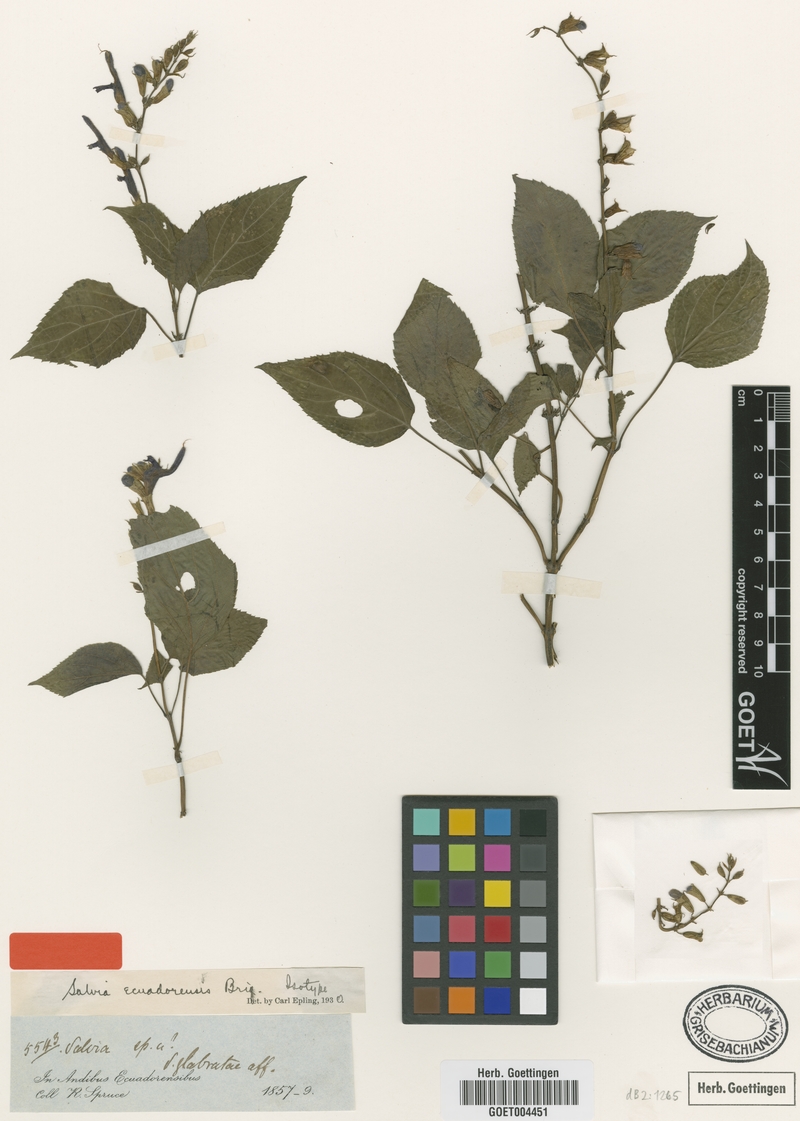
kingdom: Plantae
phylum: Tracheophyta
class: Magnoliopsida
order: Lamiales
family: Lamiaceae
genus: Salvia
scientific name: Salvia ecuadorensis
